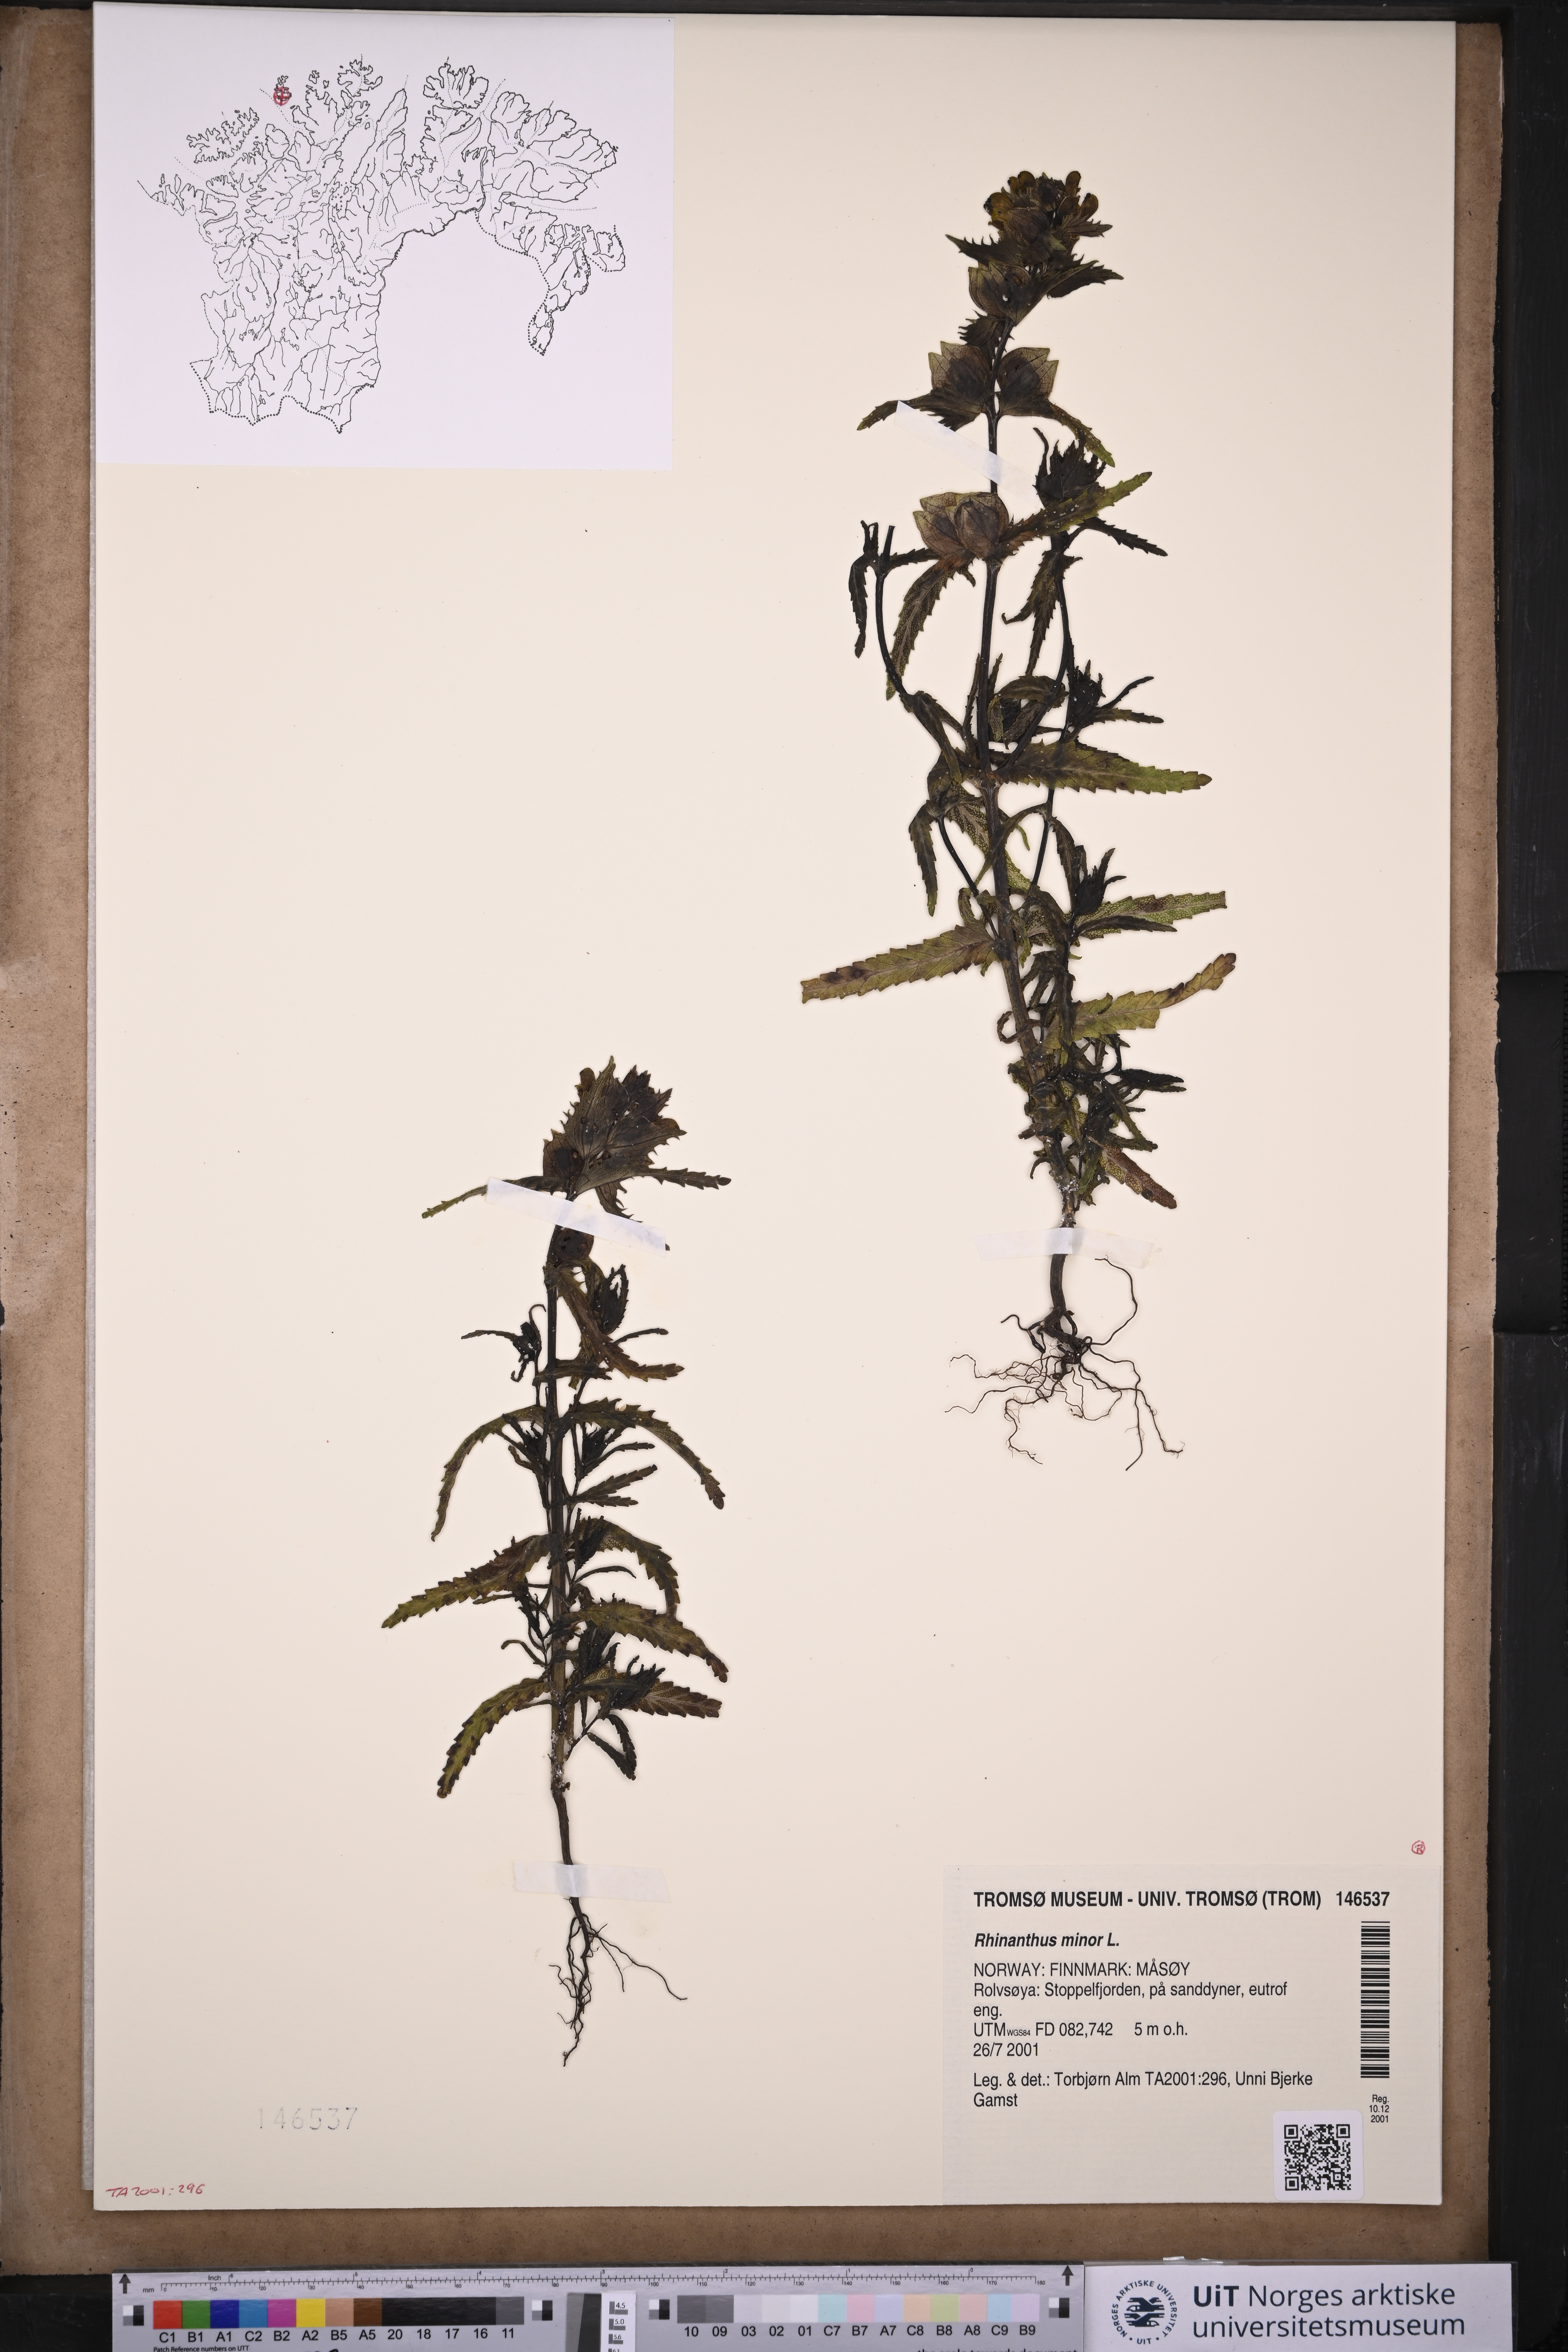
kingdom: Plantae
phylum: Tracheophyta
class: Magnoliopsida
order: Lamiales
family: Orobanchaceae
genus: Rhinanthus
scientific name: Rhinanthus minor
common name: Yellow-rattle
